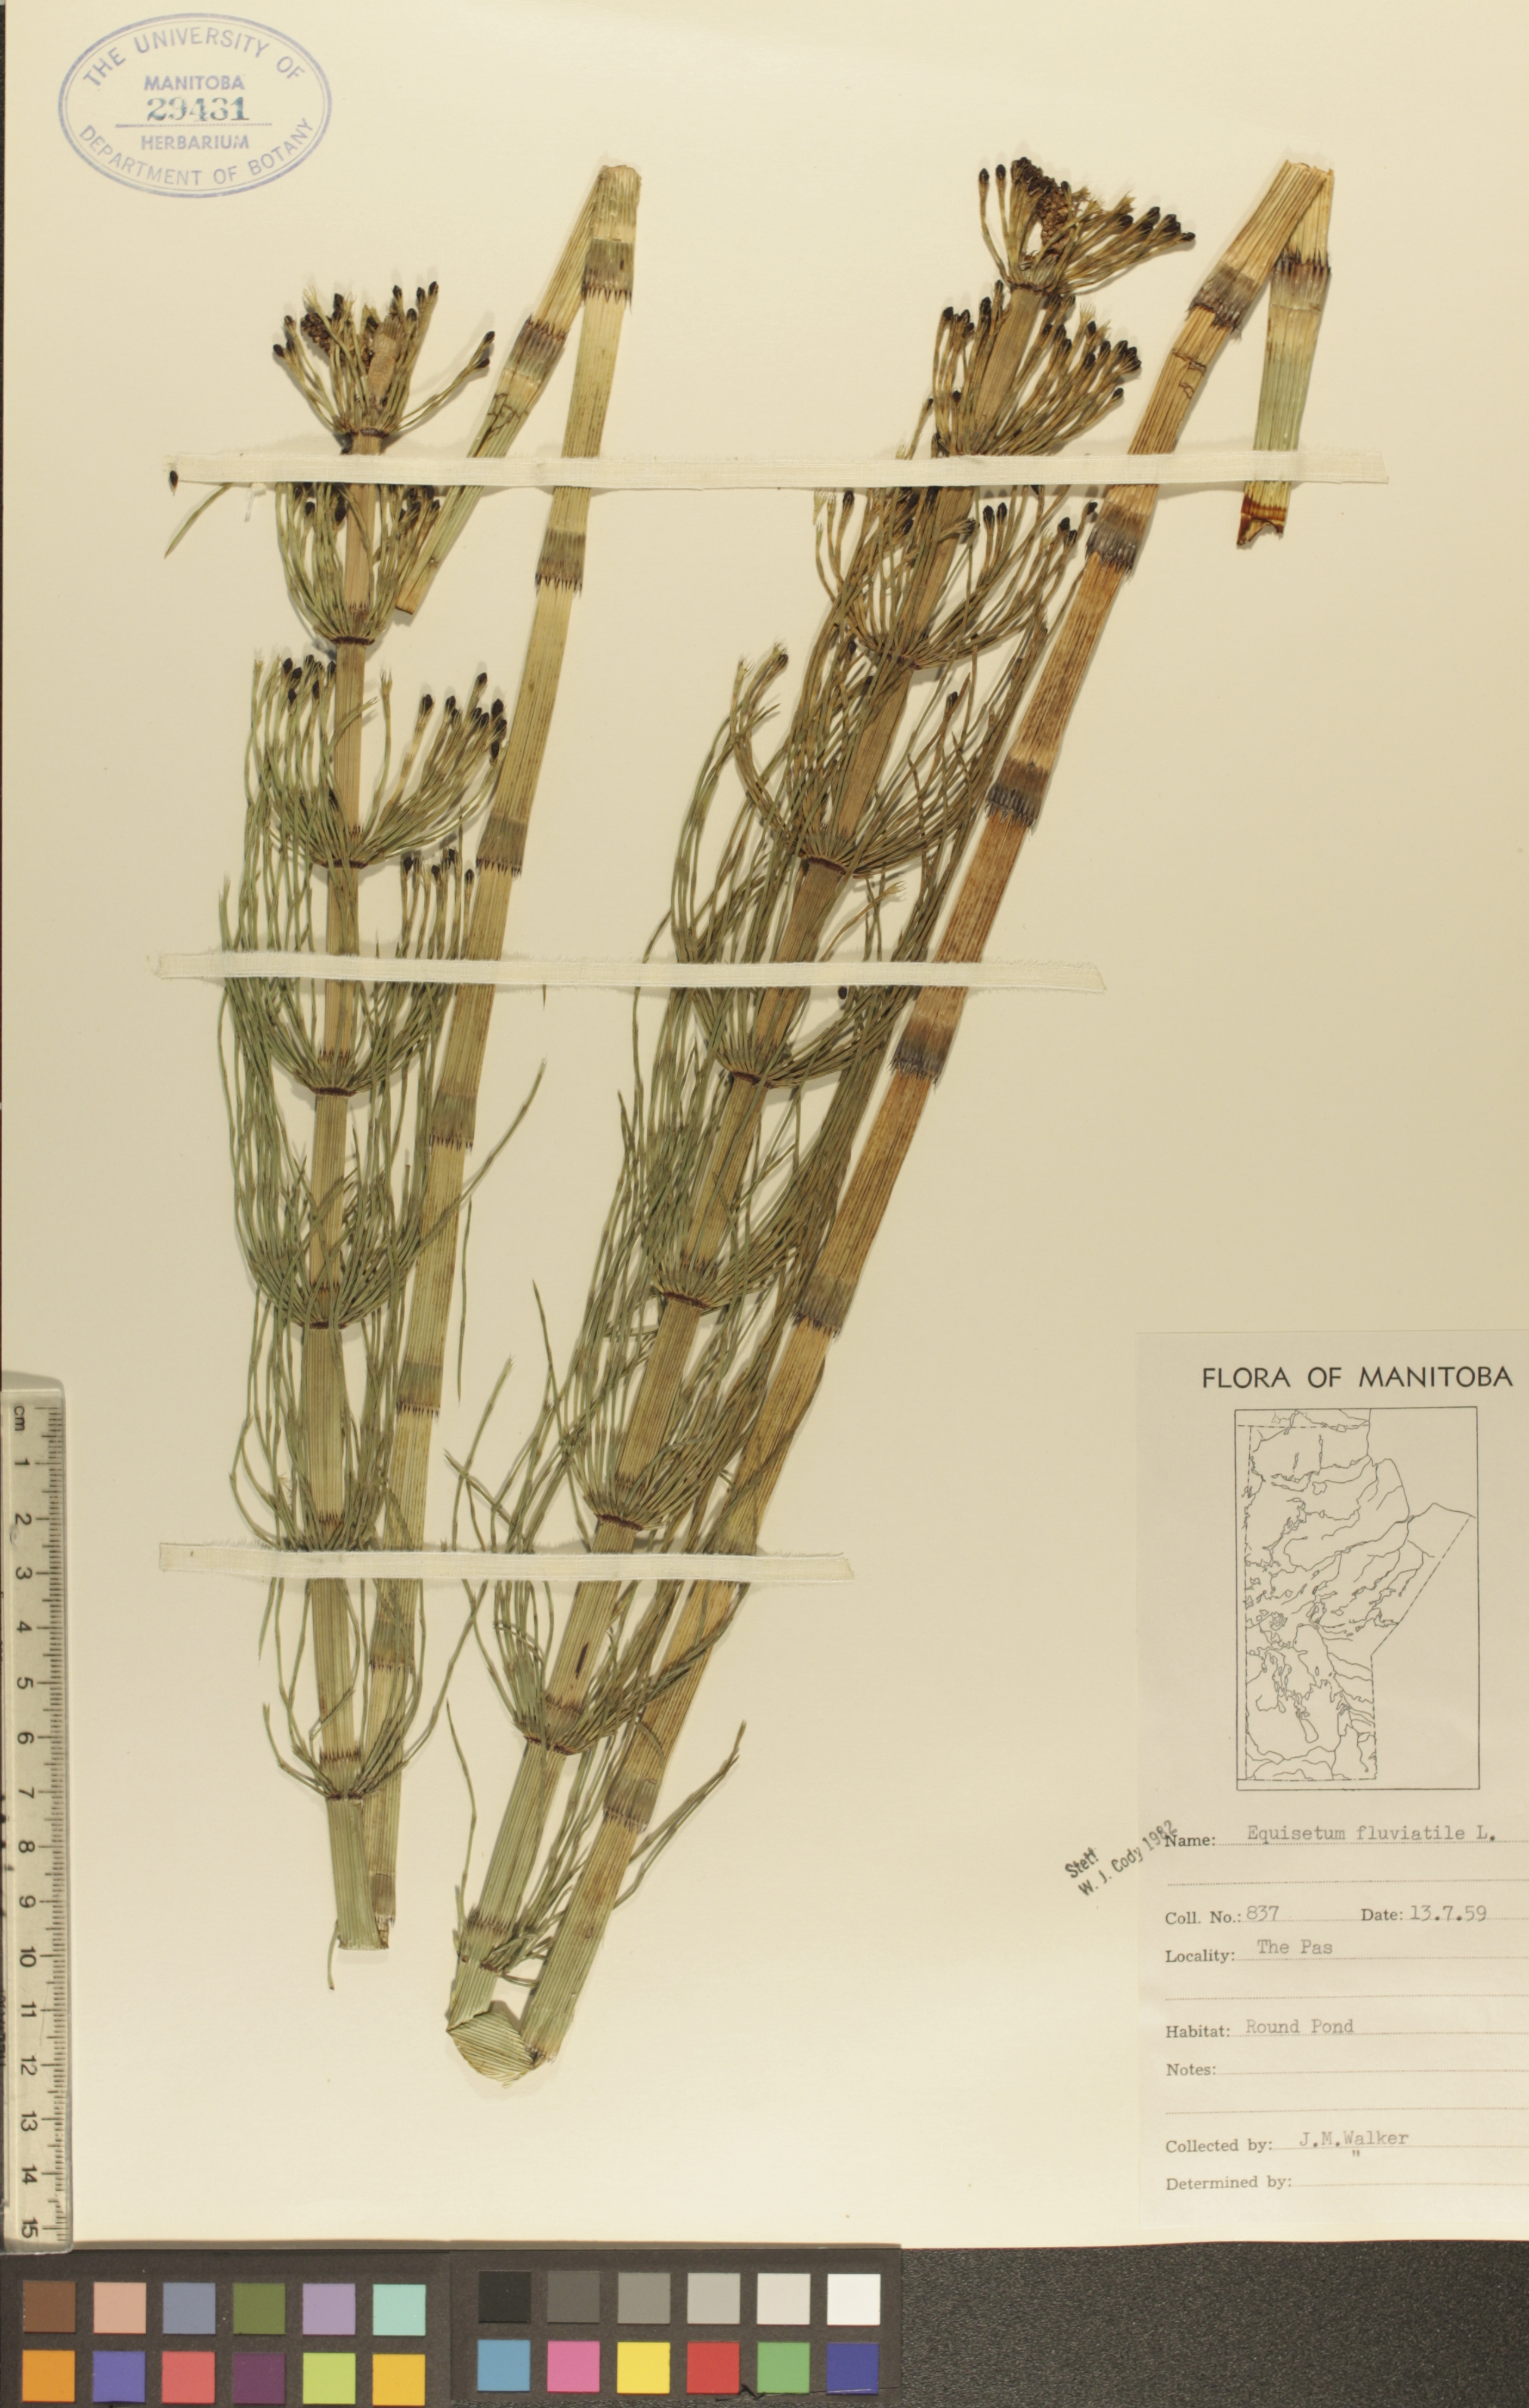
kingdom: Plantae
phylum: Tracheophyta
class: Polypodiopsida
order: Equisetales
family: Equisetaceae
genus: Equisetum
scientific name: Equisetum fluviatile
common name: Water horsetail
